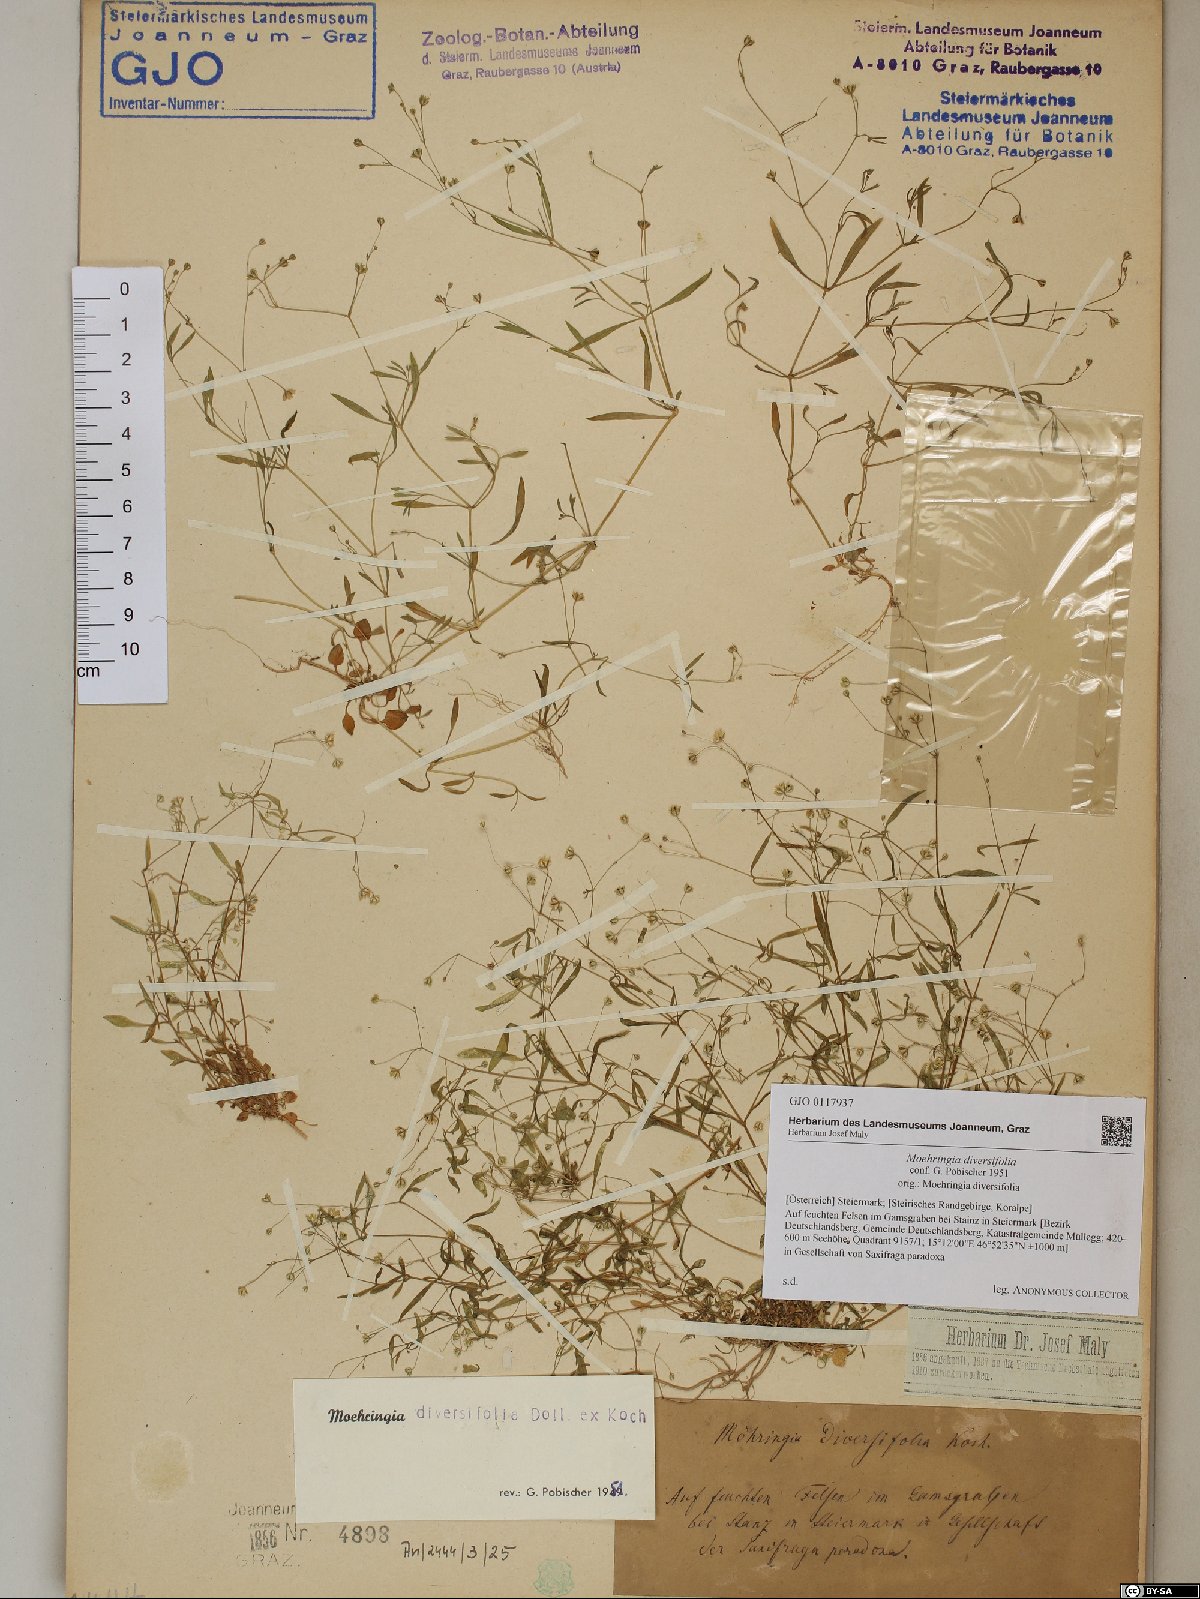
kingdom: Plantae
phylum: Tracheophyta
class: Magnoliopsida
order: Caryophyllales
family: Caryophyllaceae
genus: Moehringia
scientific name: Moehringia diversifolia
